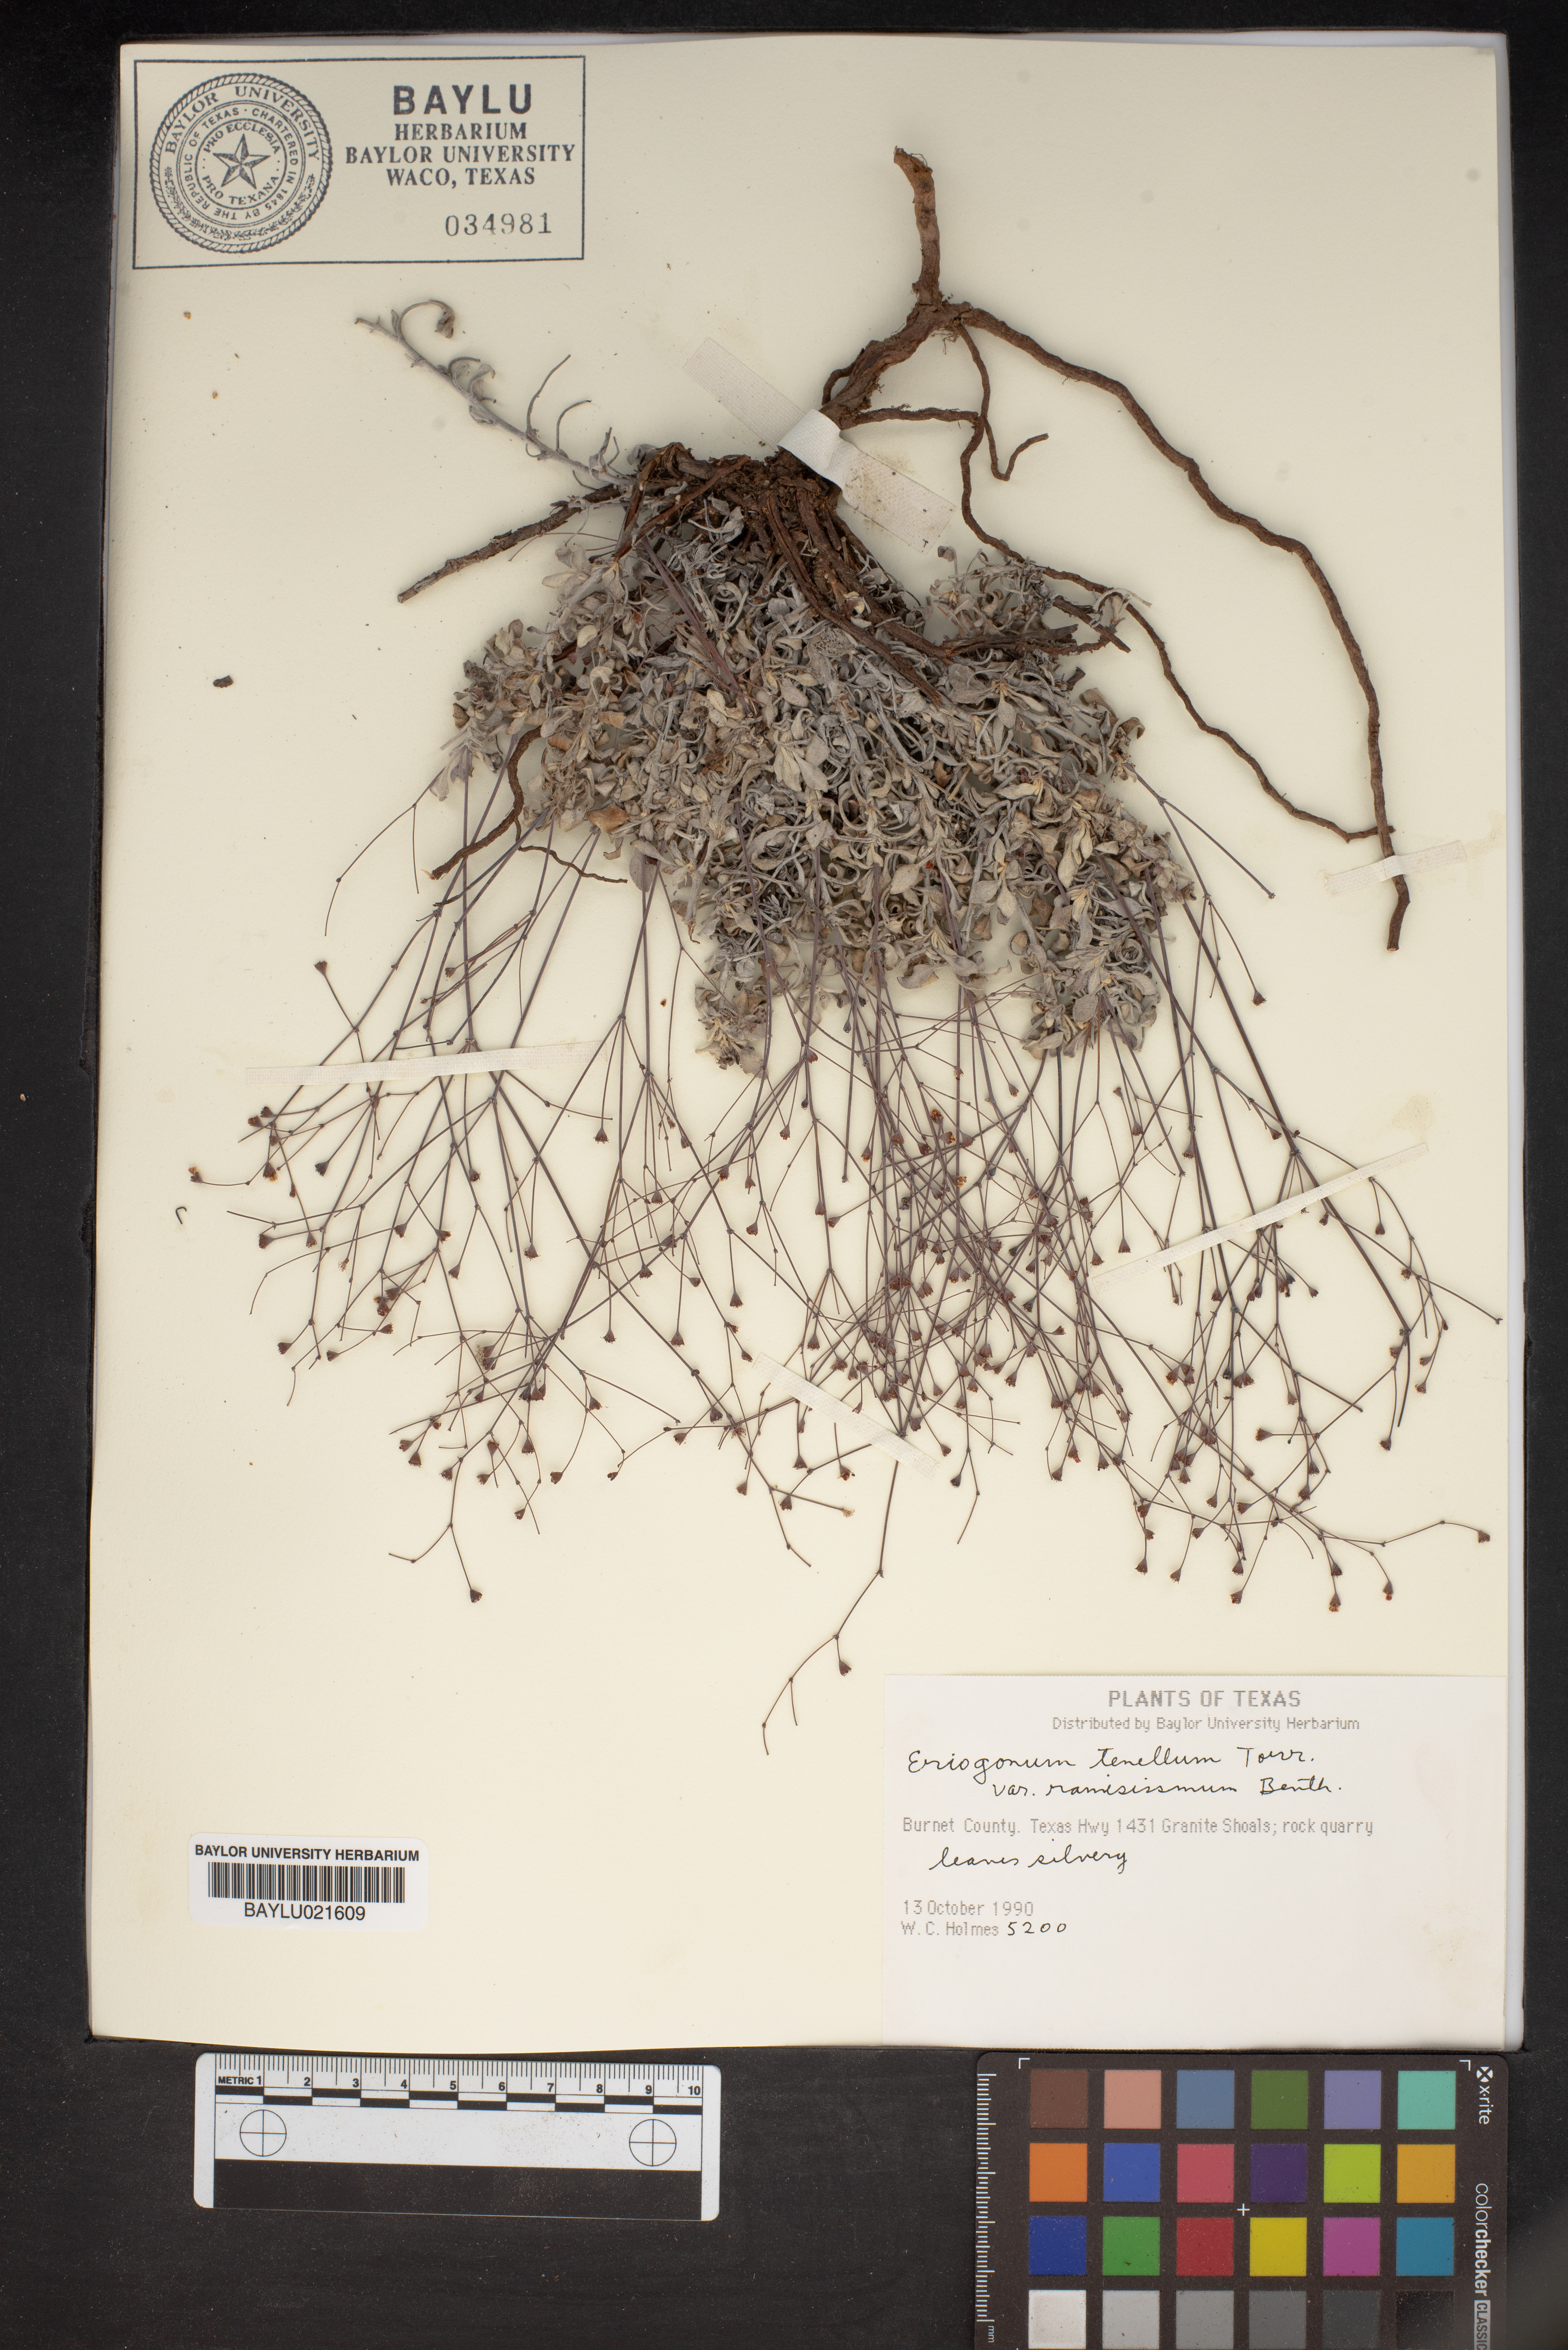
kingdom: Plantae
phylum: Tracheophyta
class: Magnoliopsida
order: Caryophyllales
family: Polygonaceae
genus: Eriogonum
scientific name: Eriogonum graniticum
